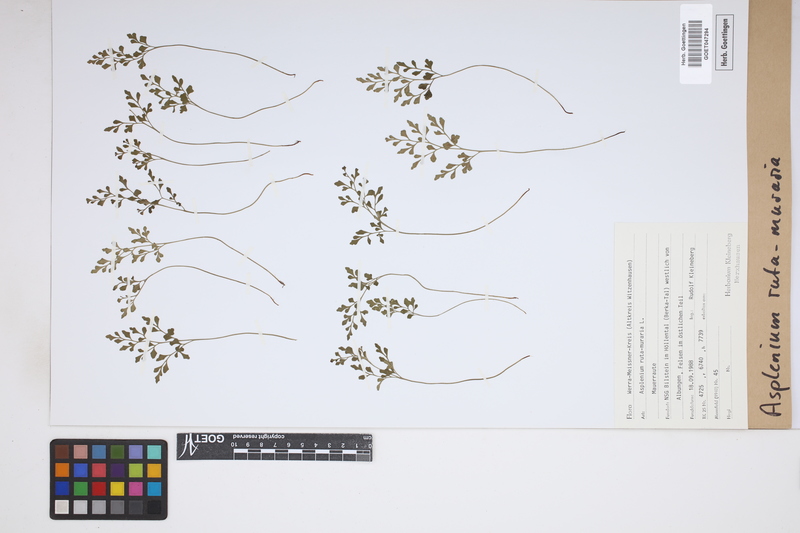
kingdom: Plantae
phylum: Tracheophyta
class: Polypodiopsida
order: Polypodiales
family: Aspleniaceae
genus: Asplenium
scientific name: Asplenium ruta-muraria
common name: Wall-rue
